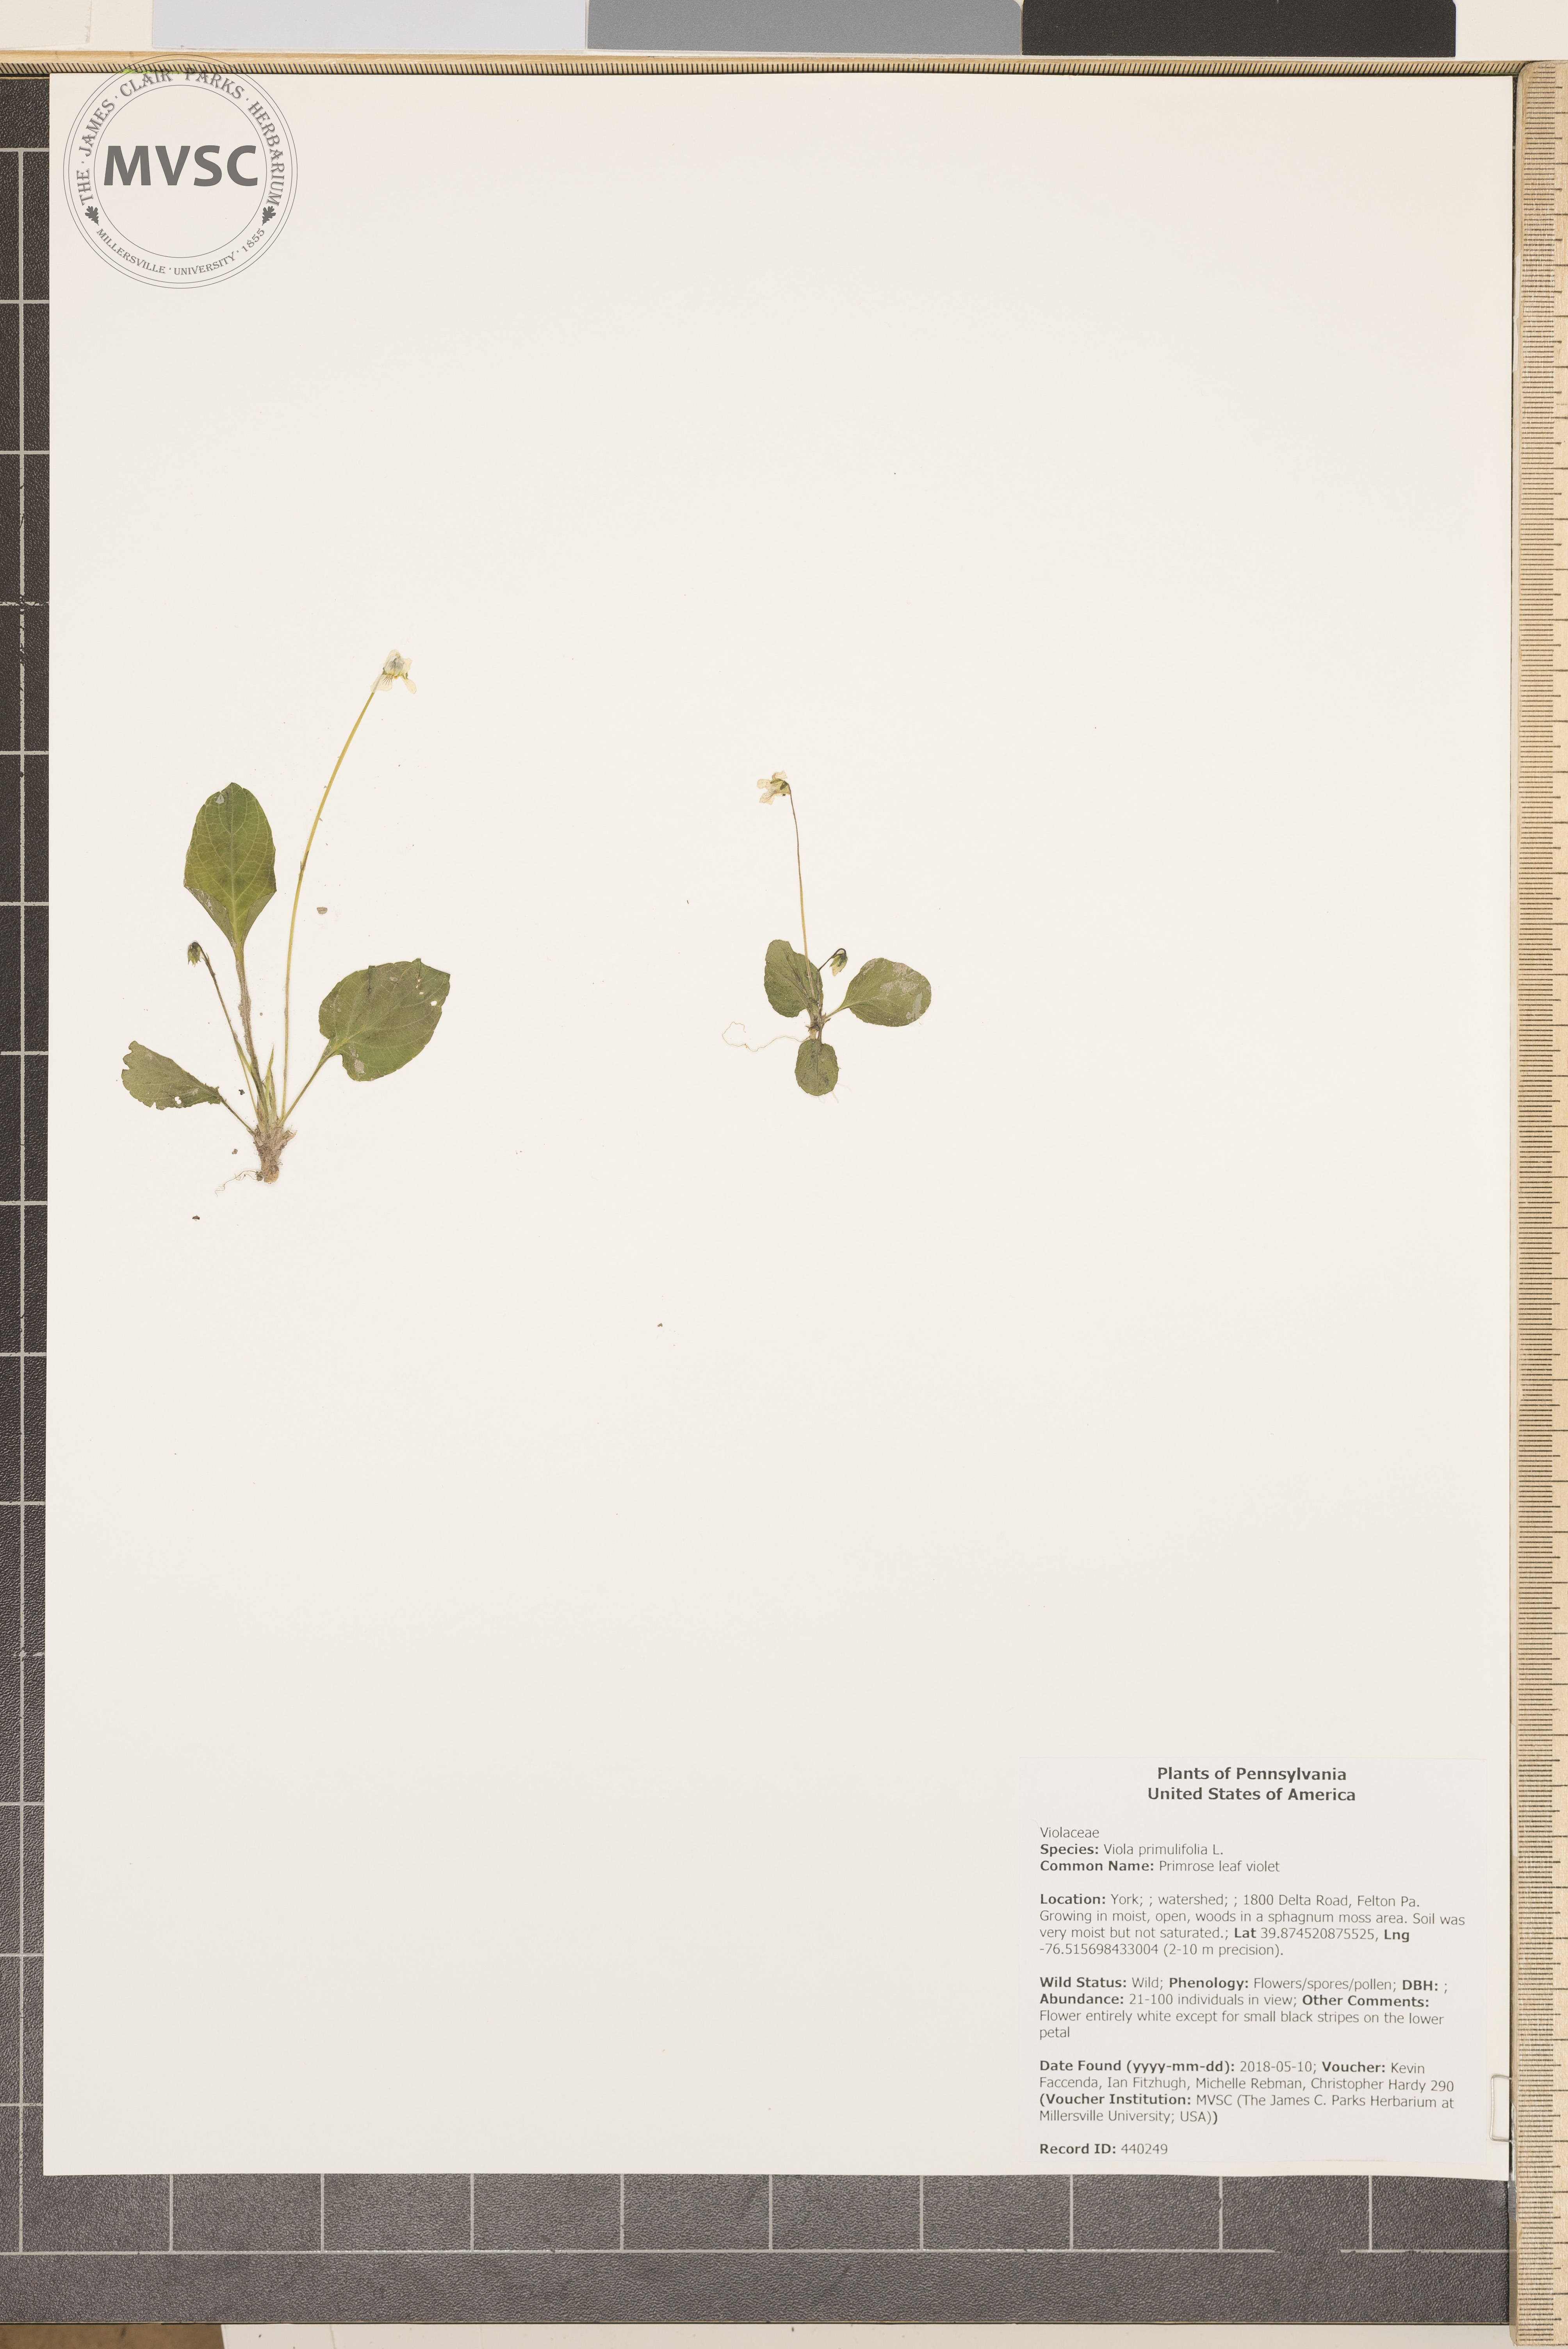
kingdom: Plantae
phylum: Tracheophyta
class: Magnoliopsida
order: Malpighiales
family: Violaceae
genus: Viola
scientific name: Viola primulifolia
